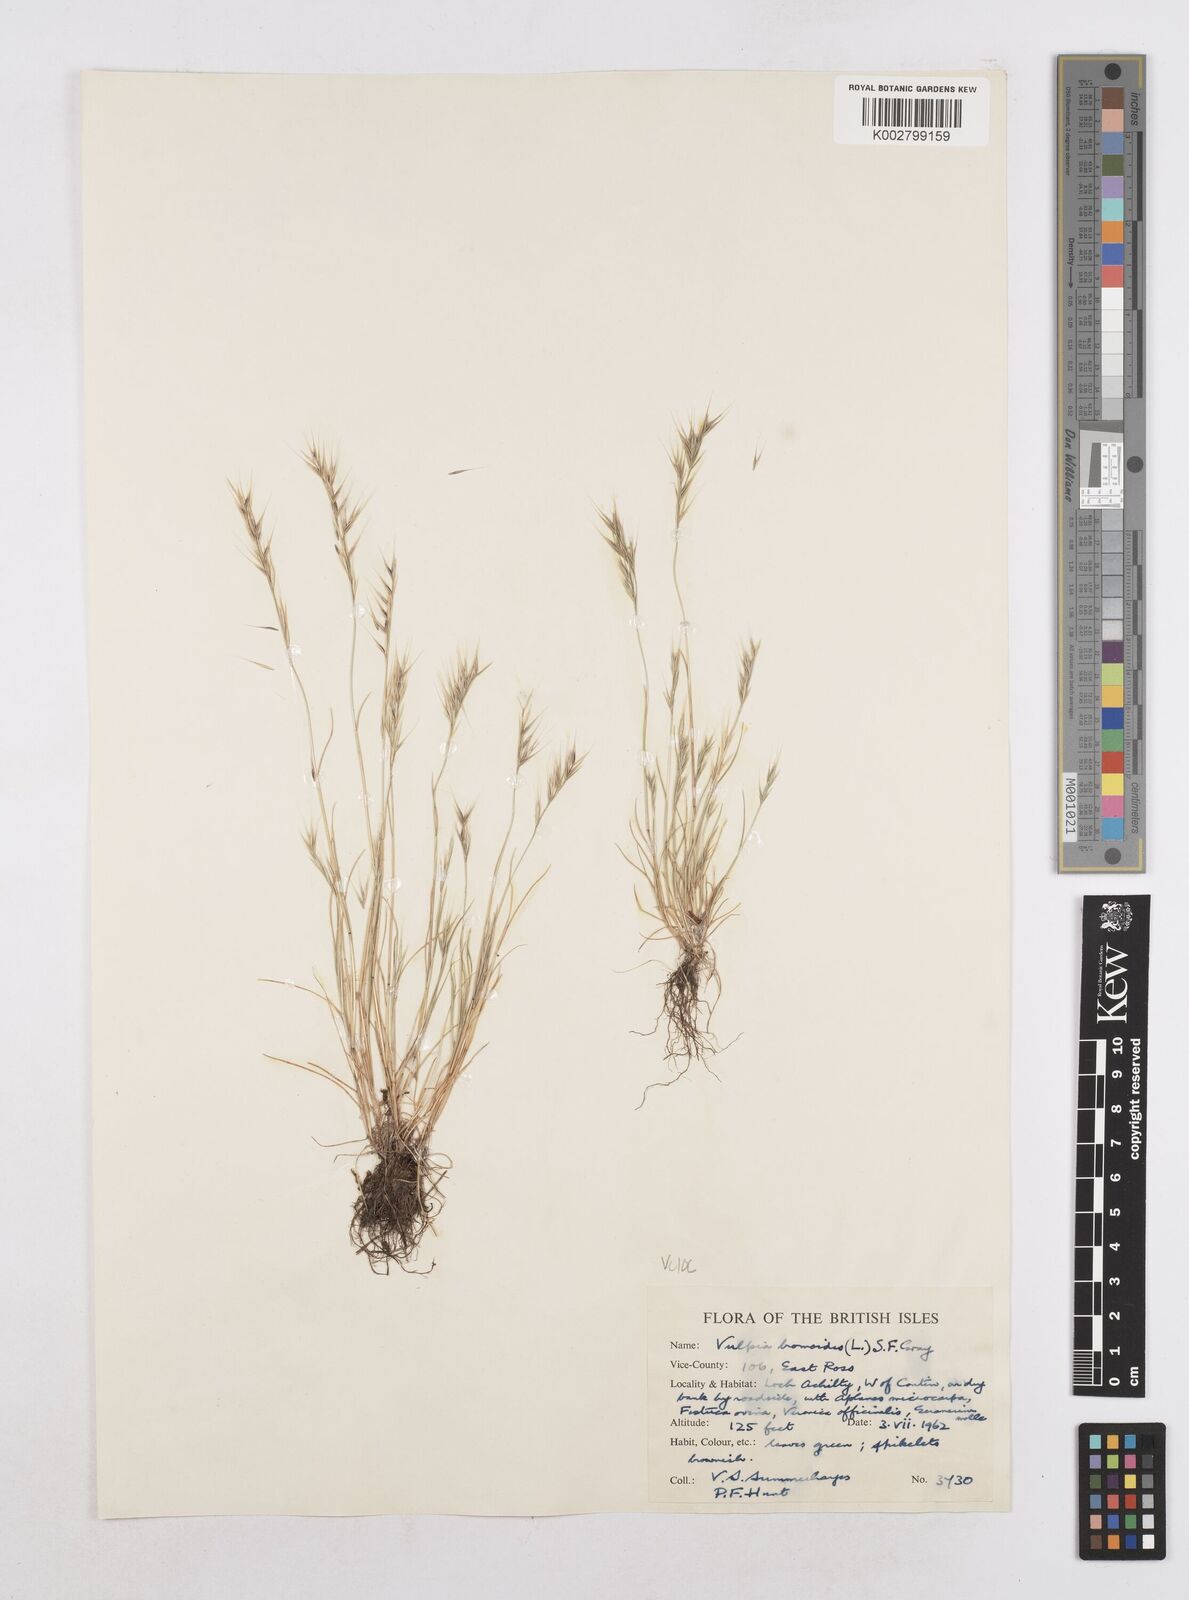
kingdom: Plantae
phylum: Tracheophyta
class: Liliopsida
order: Poales
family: Poaceae
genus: Festuca
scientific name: Festuca bromoides
